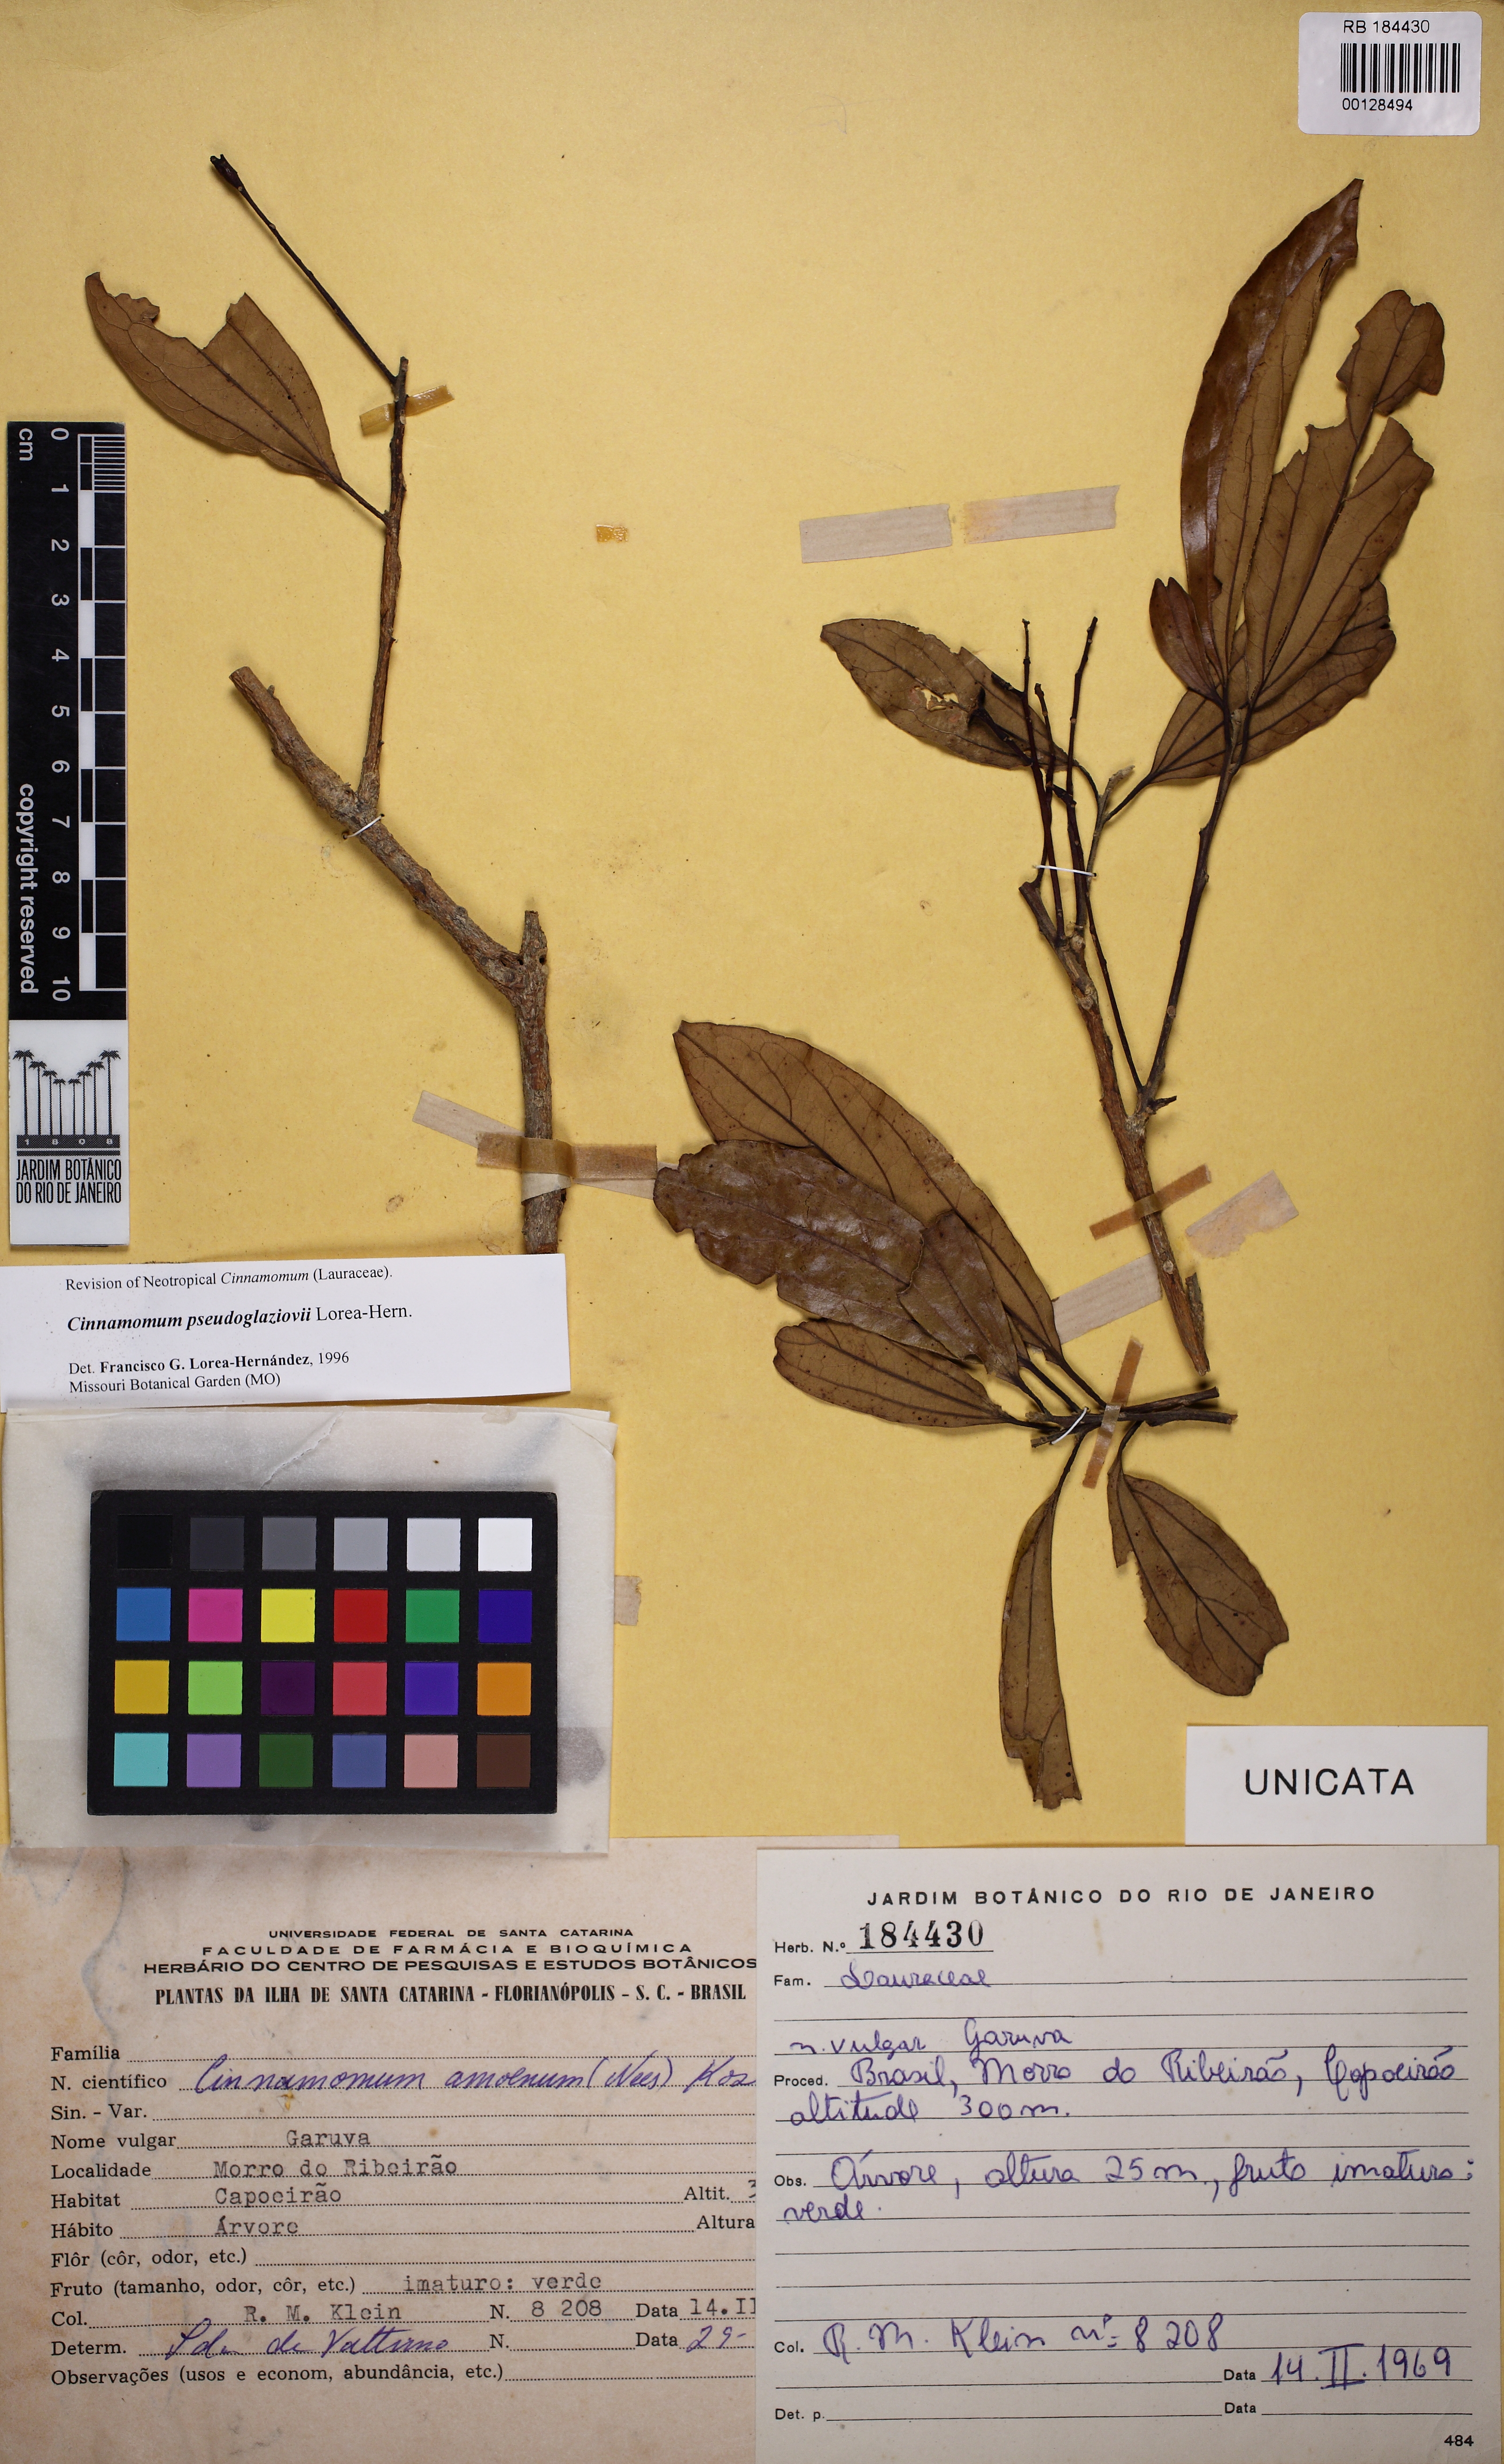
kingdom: Plantae
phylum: Tracheophyta
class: Magnoliopsida
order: Laurales
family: Lauraceae
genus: Aiouea
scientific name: Aiouea pseudoglaziovii
